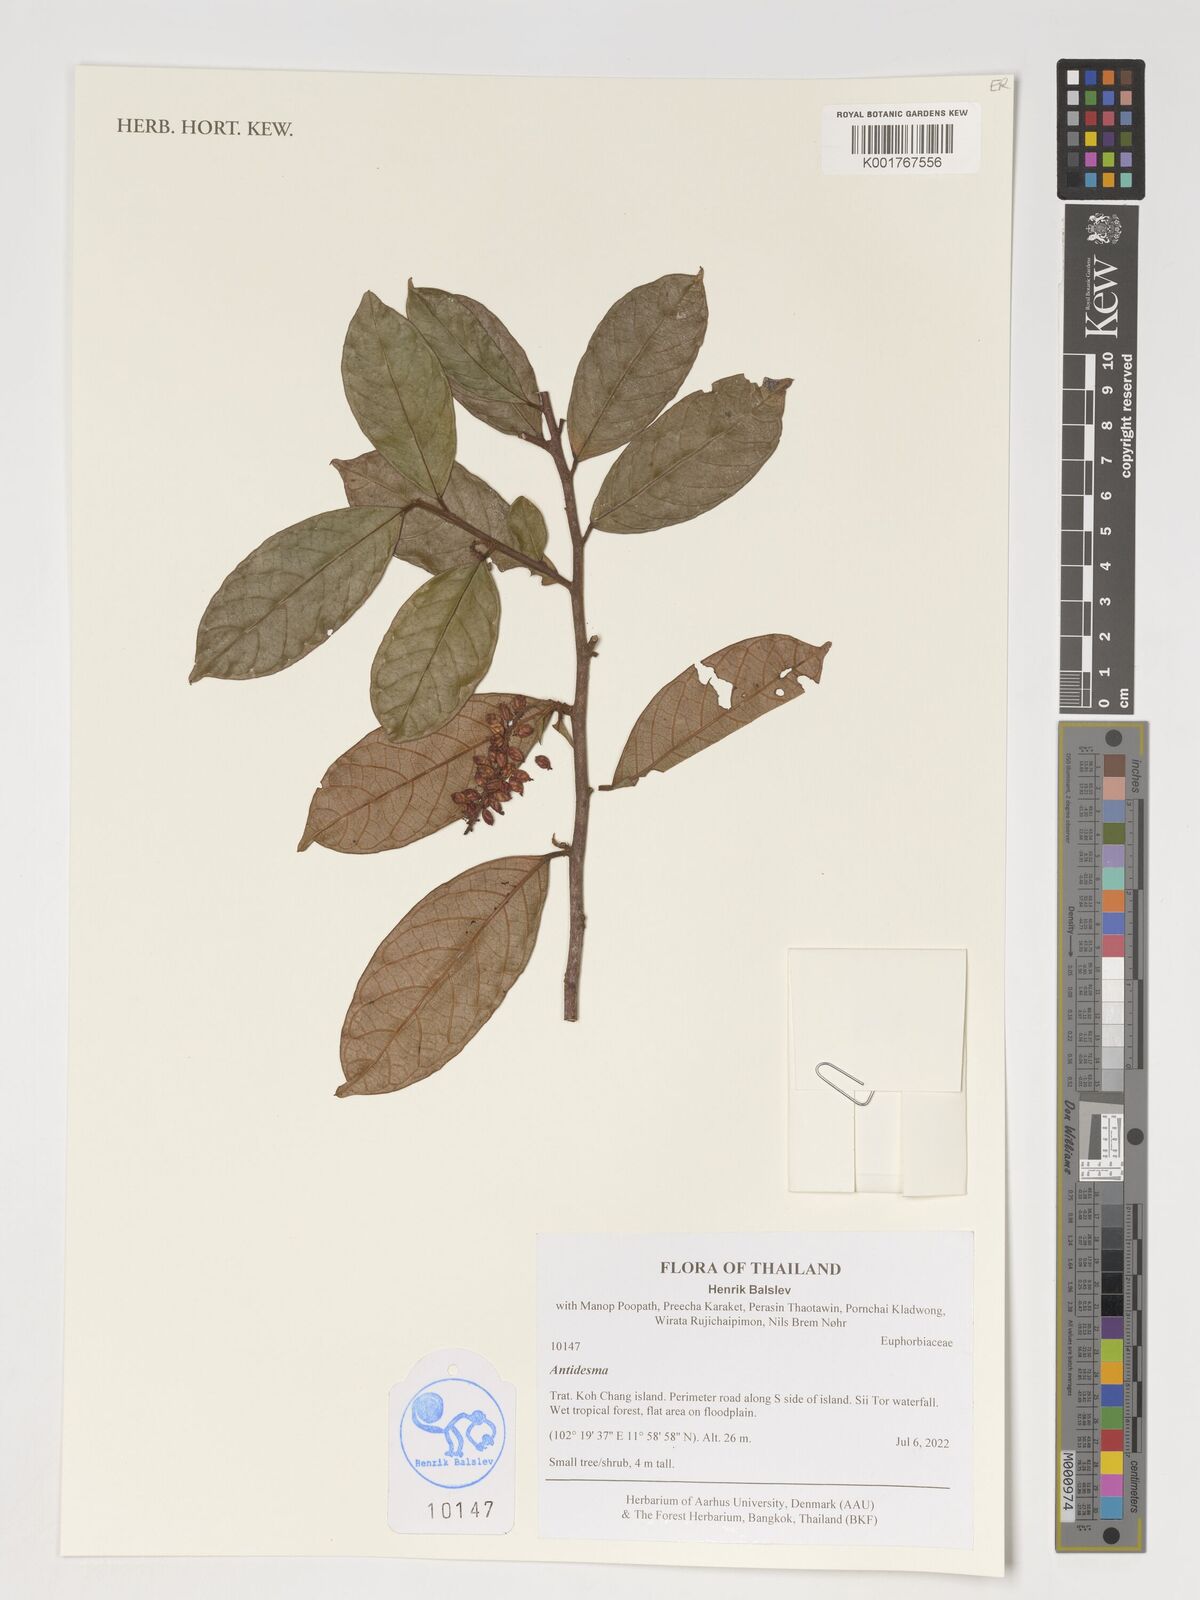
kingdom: Plantae
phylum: Tracheophyta
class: Magnoliopsida
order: Malpighiales
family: Phyllanthaceae
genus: Antidesma
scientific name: Antidesma
